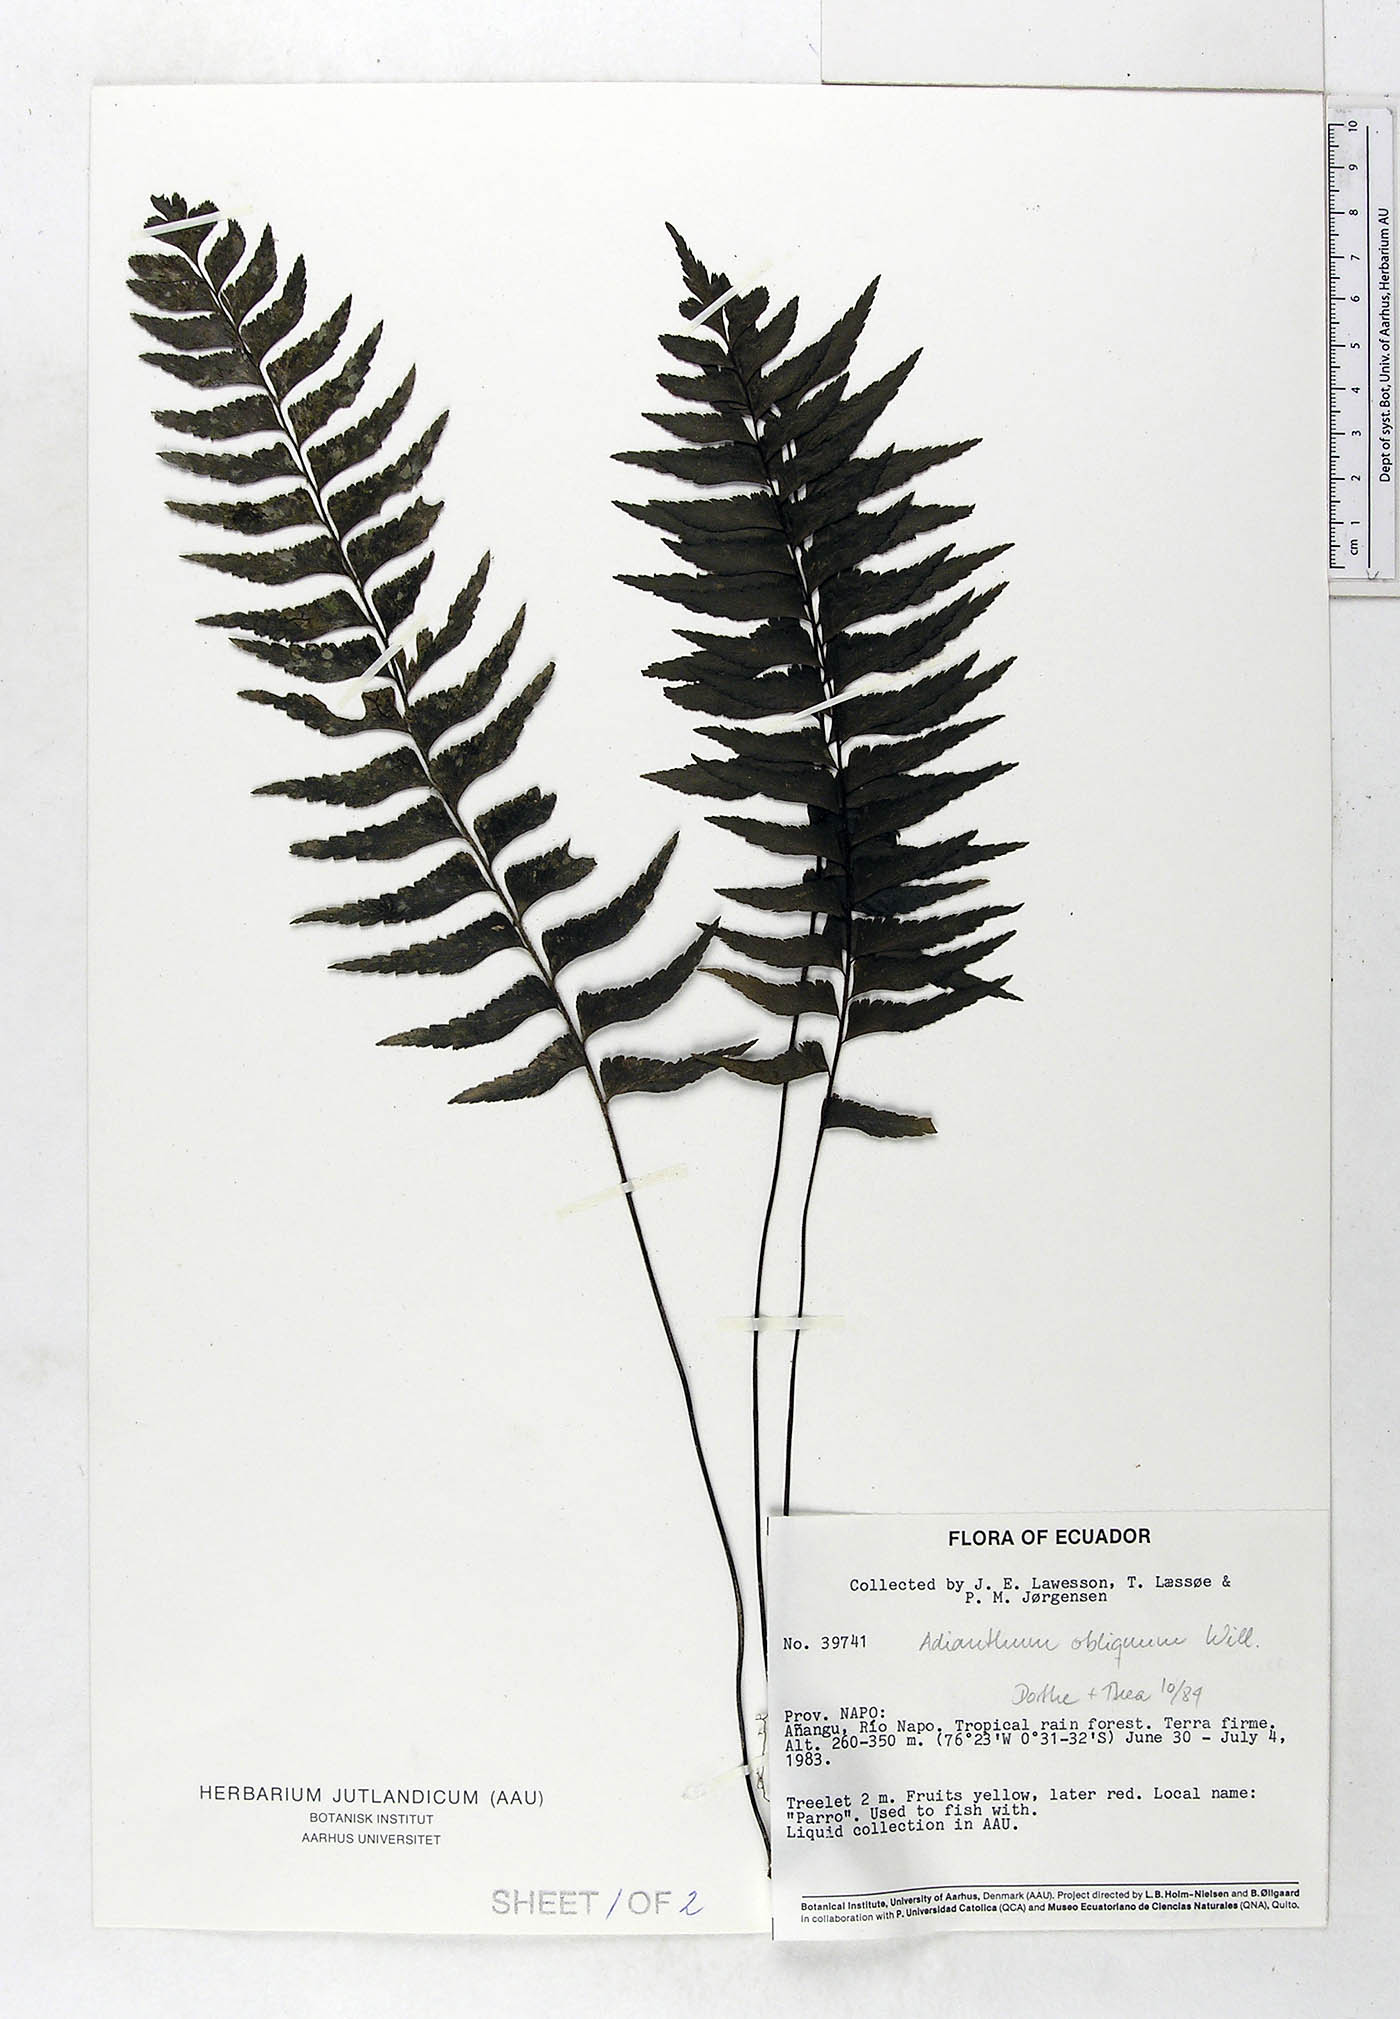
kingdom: Plantae
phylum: Tracheophyta
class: Magnoliopsida
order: Magnoliales
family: Annonaceae
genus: Unonopsis
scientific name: Unonopsis veneficiorum
